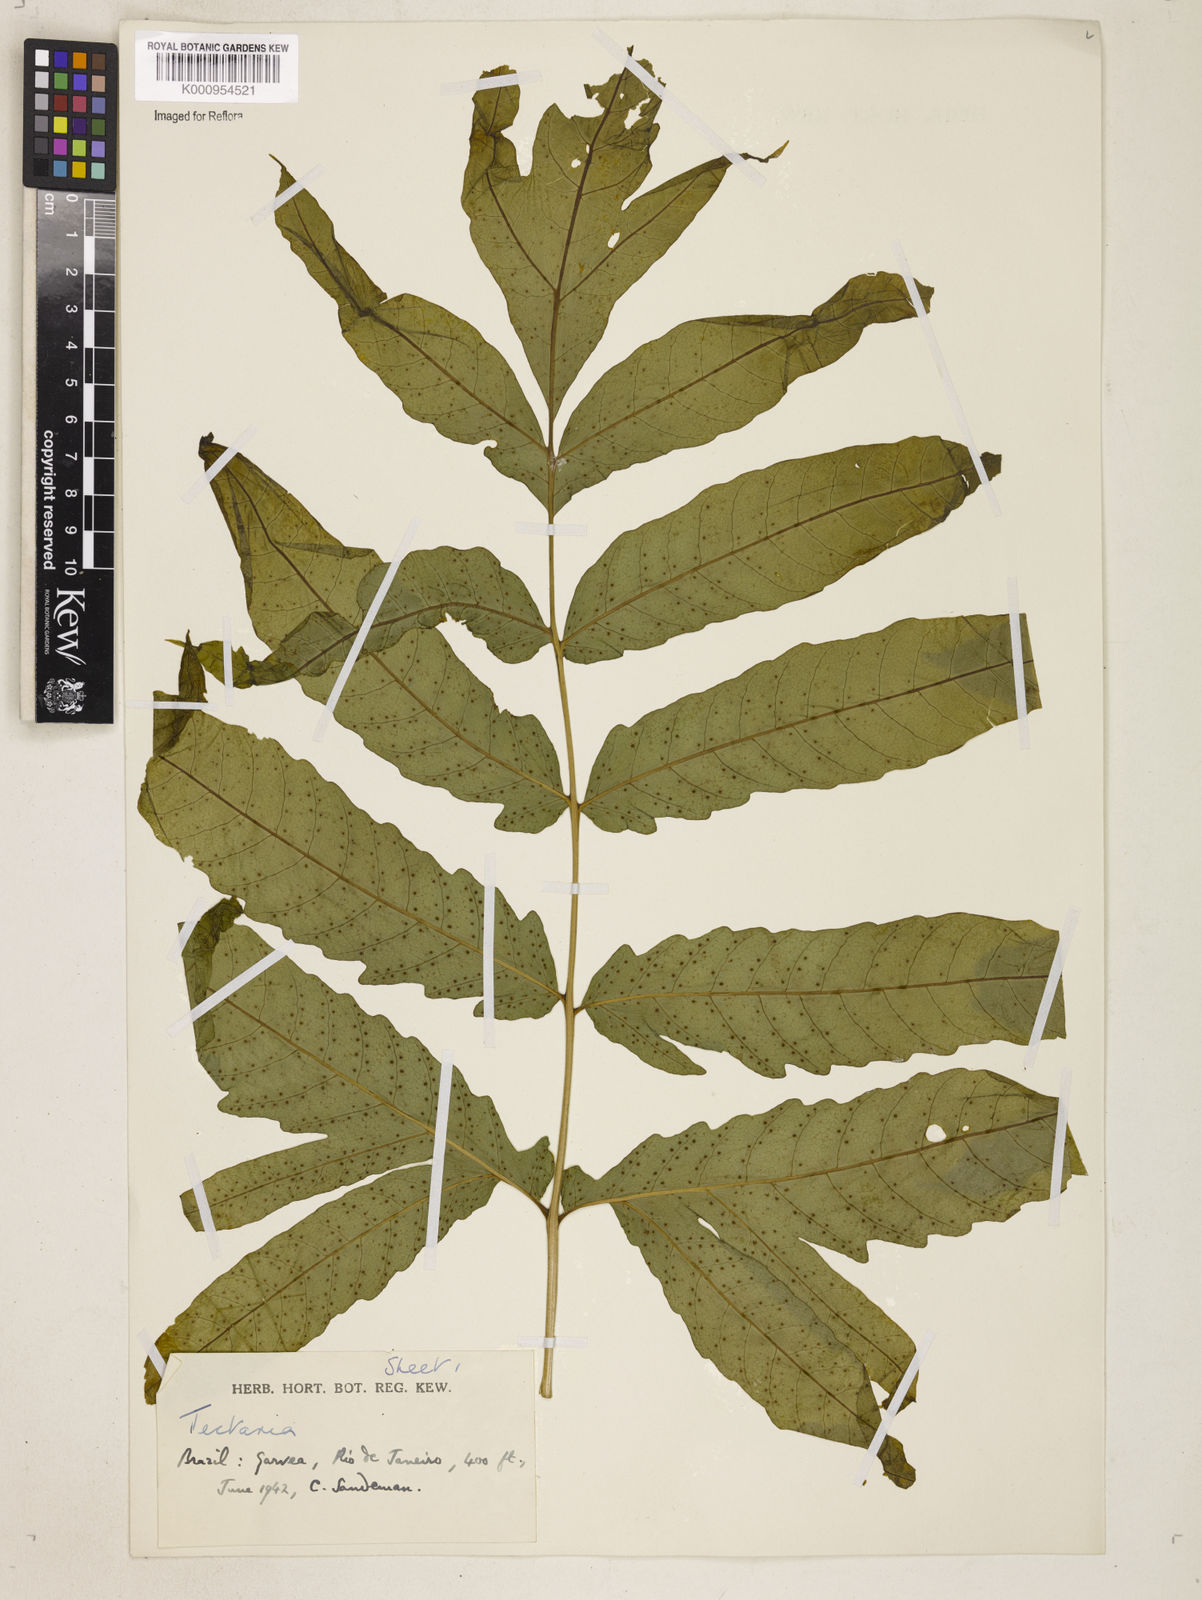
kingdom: Plantae
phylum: Tracheophyta
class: Polypodiopsida
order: Polypodiales
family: Tectariaceae
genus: Tectaria
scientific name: Tectaria incisa
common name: Incised halberd fern
